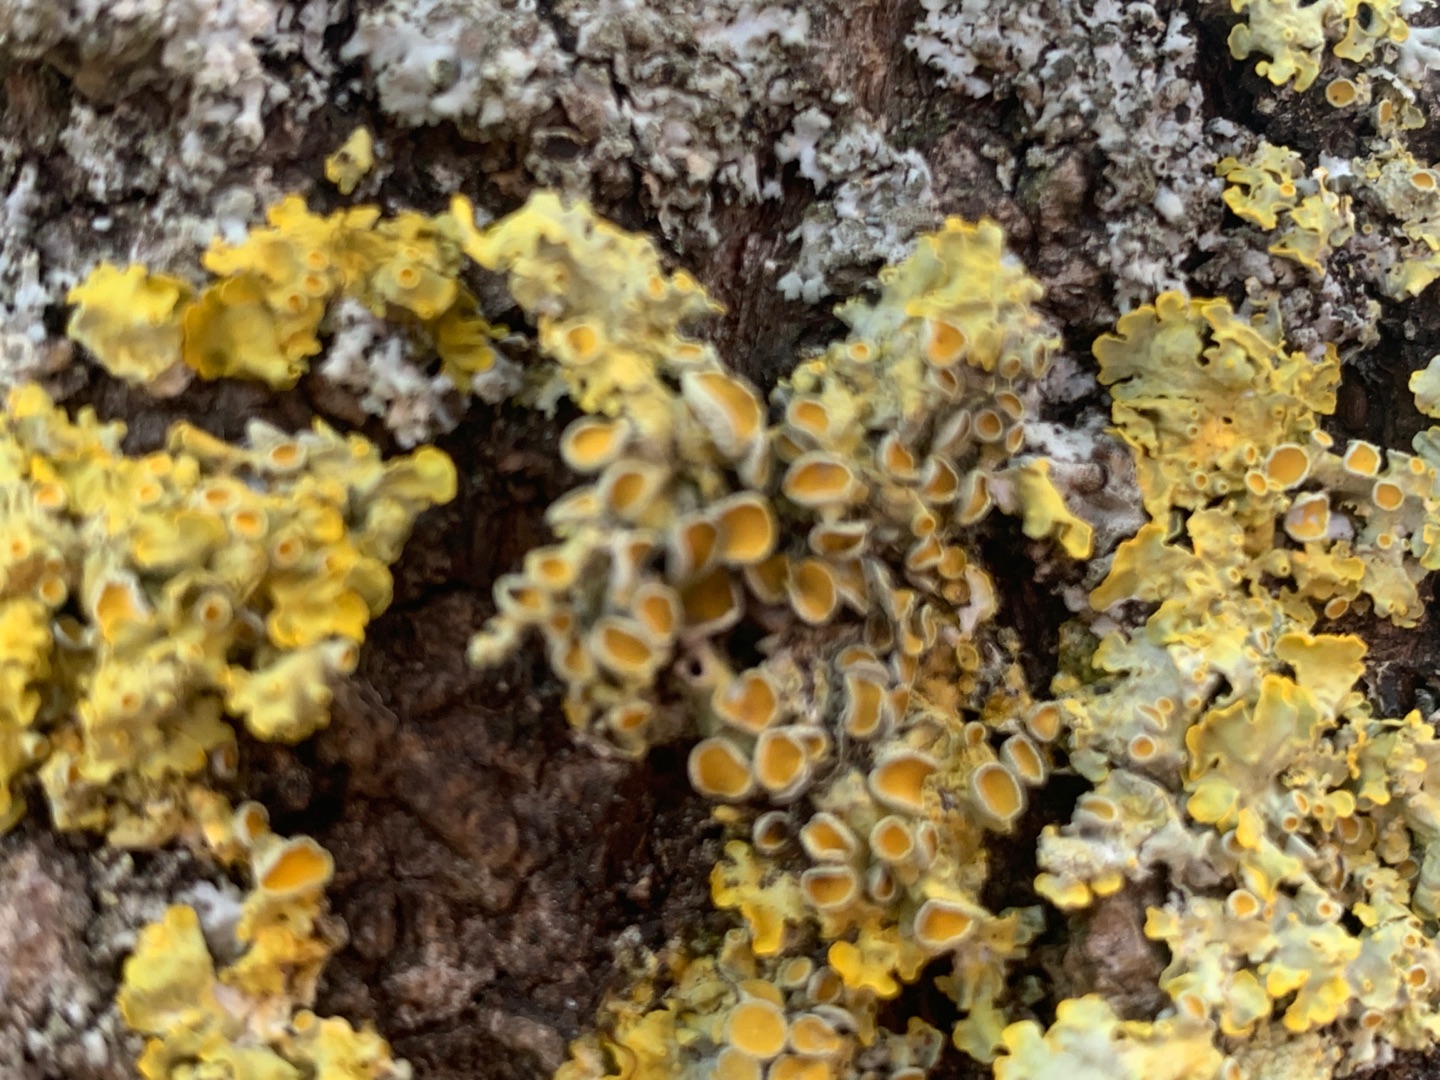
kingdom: Fungi
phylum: Ascomycota
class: Lecanoromycetes
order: Teloschistales
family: Teloschistaceae
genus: Xanthoria
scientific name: Xanthoria parietina
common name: Almindelig væggelav
